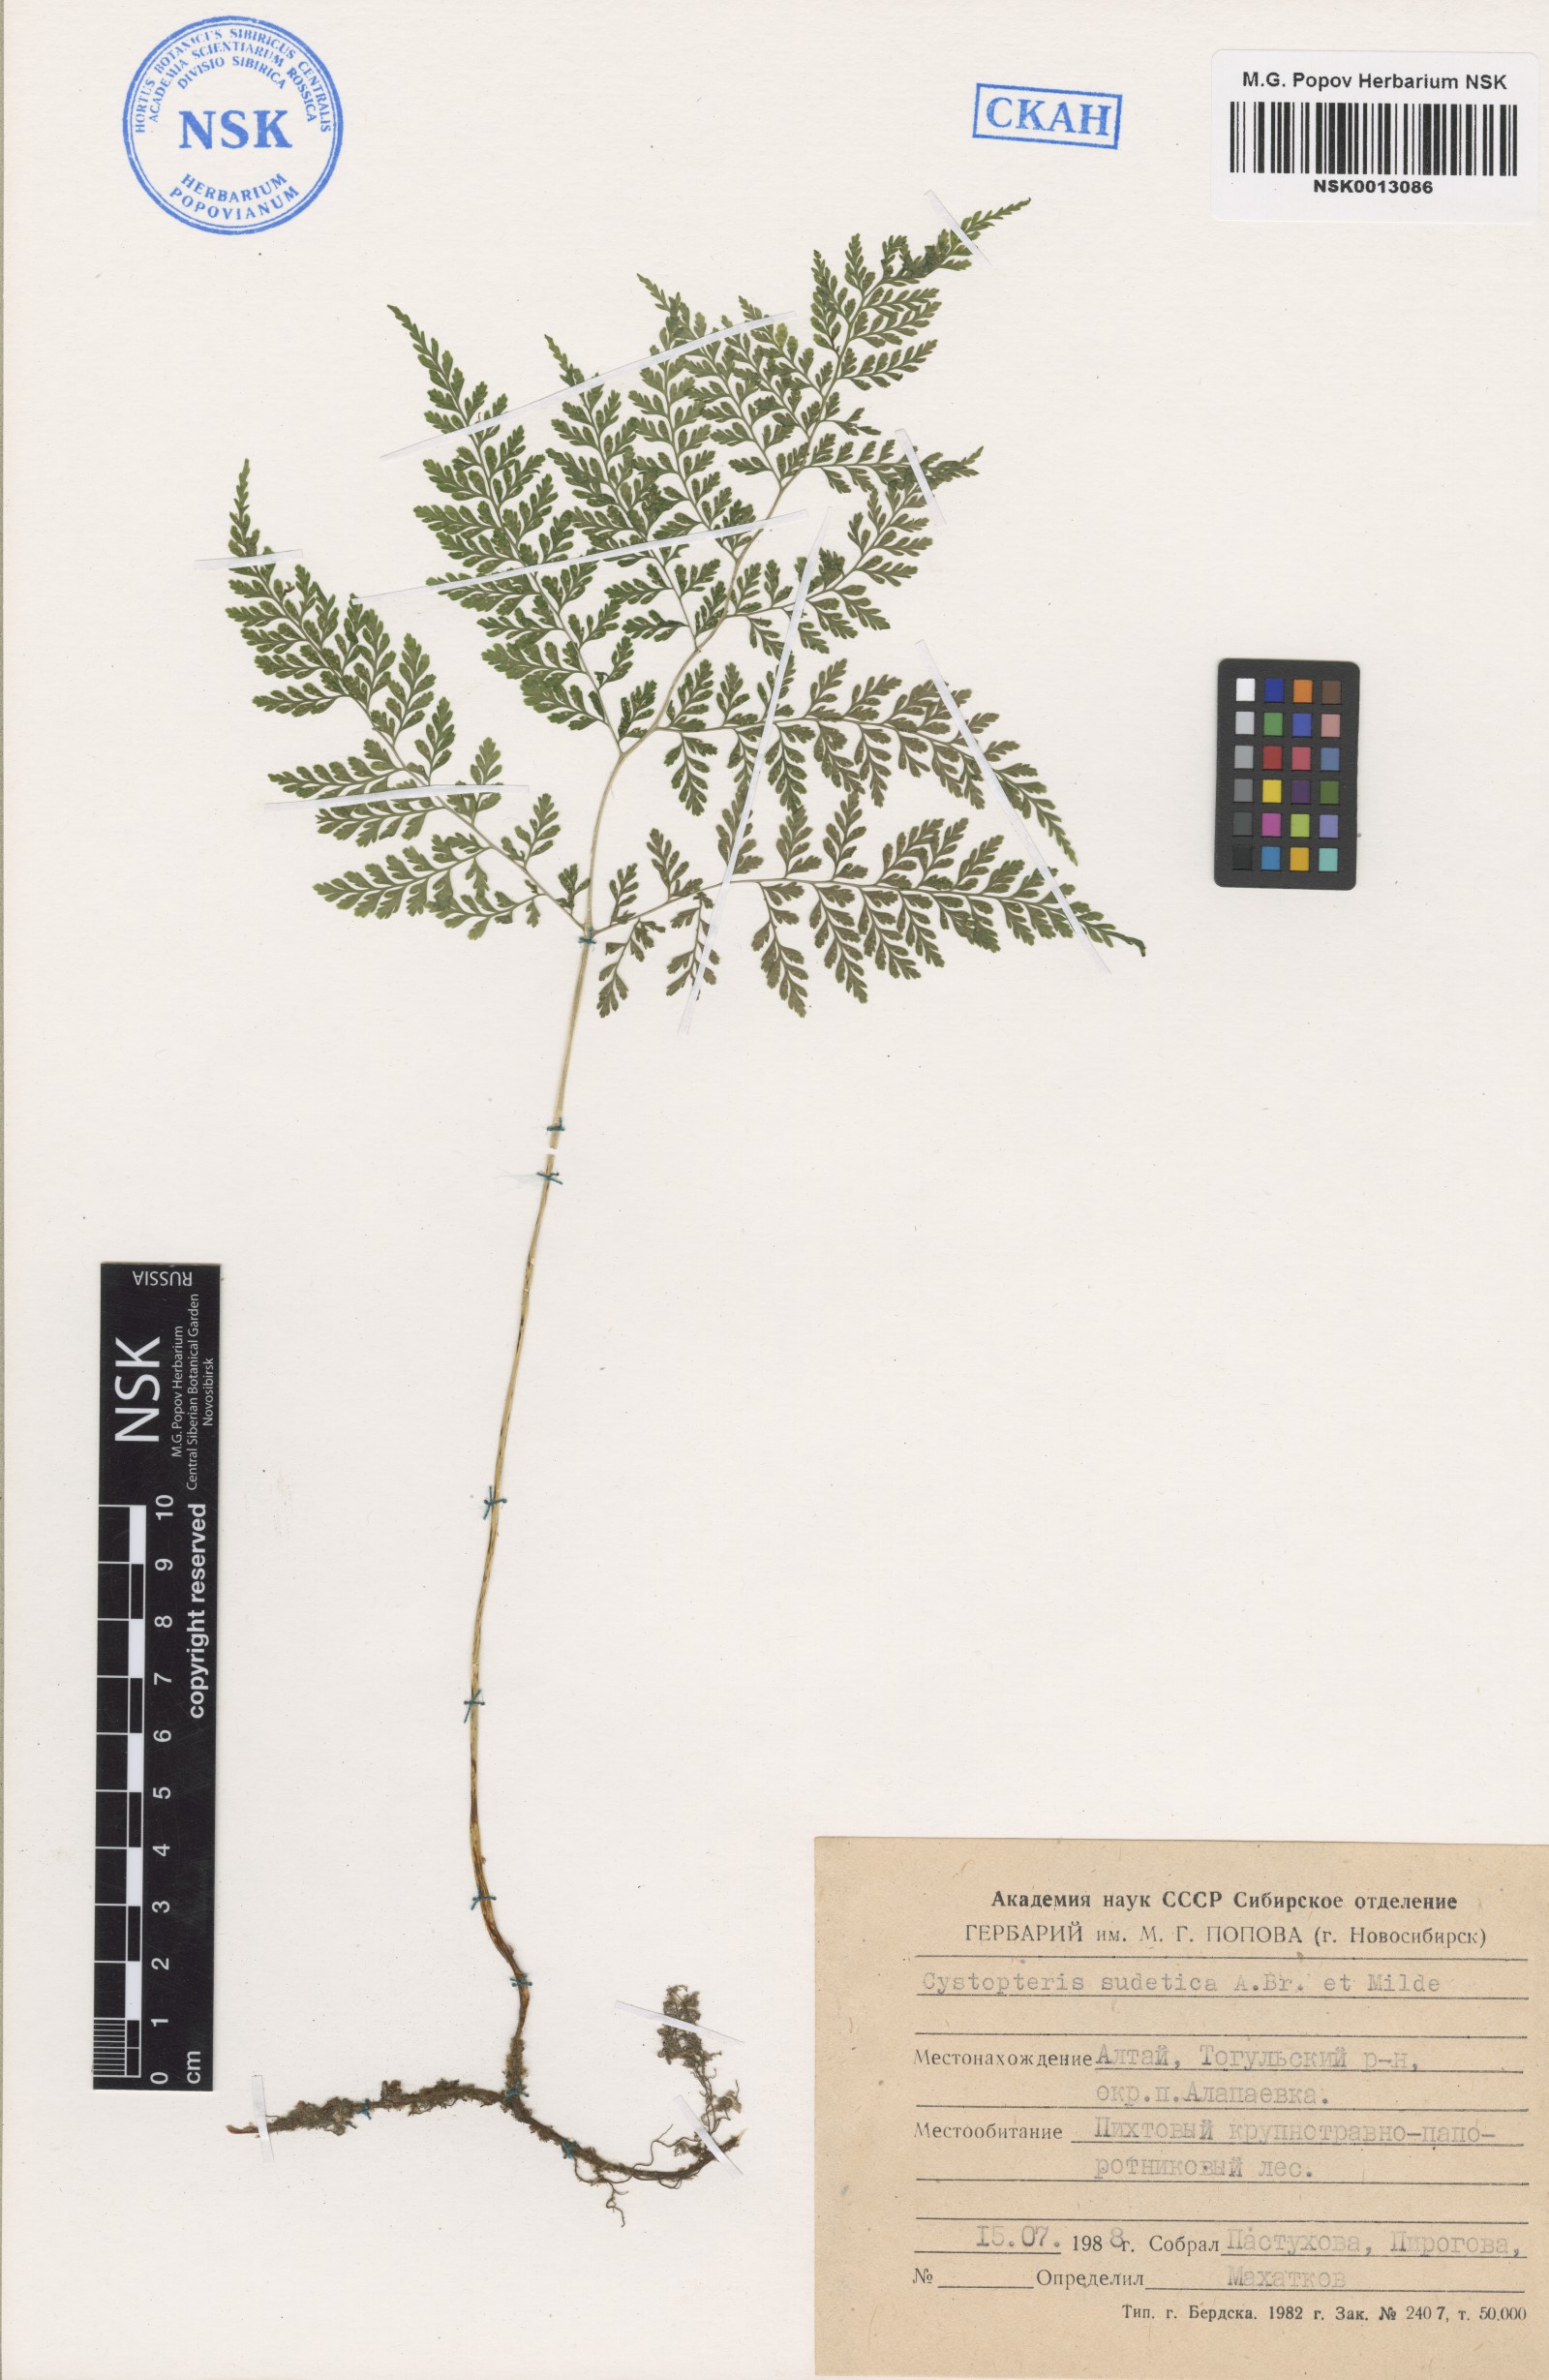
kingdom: Plantae
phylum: Tracheophyta
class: Polypodiopsida
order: Polypodiales
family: Cystopteridaceae
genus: Cystopteris
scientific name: Cystopteris sudetica
